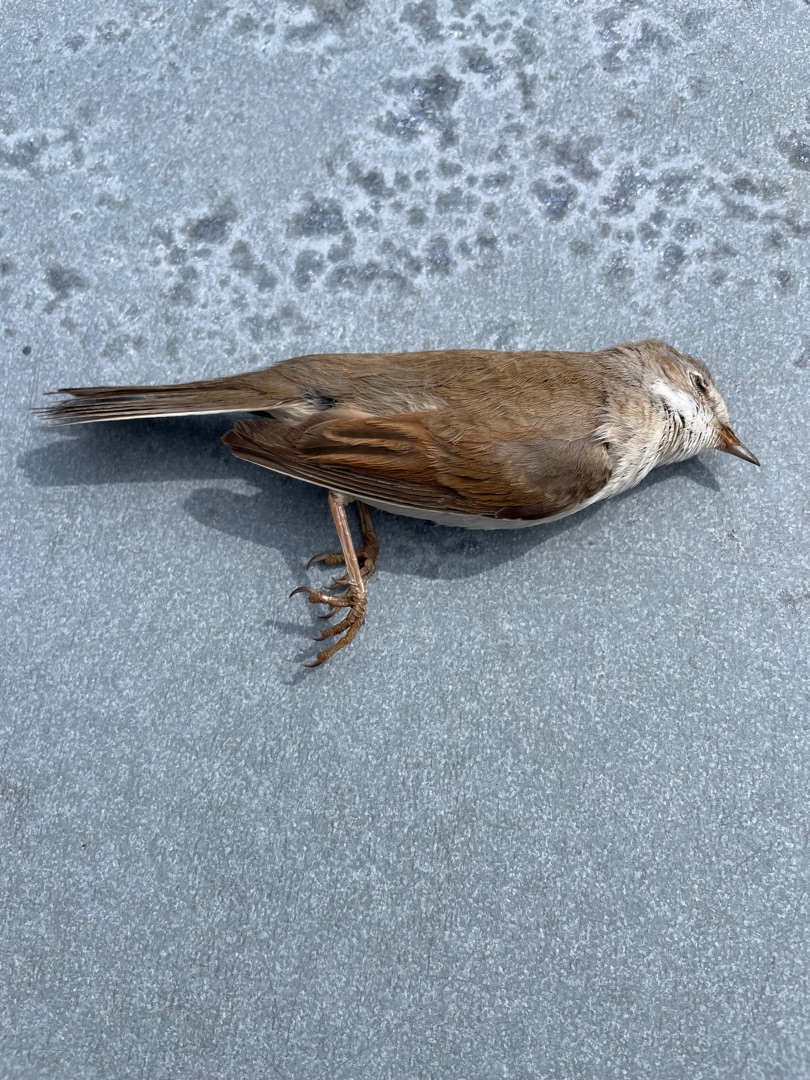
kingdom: Animalia
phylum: Chordata
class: Aves
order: Passeriformes
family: Sylviidae
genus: Sylvia
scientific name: Sylvia communis
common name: Tornsanger
